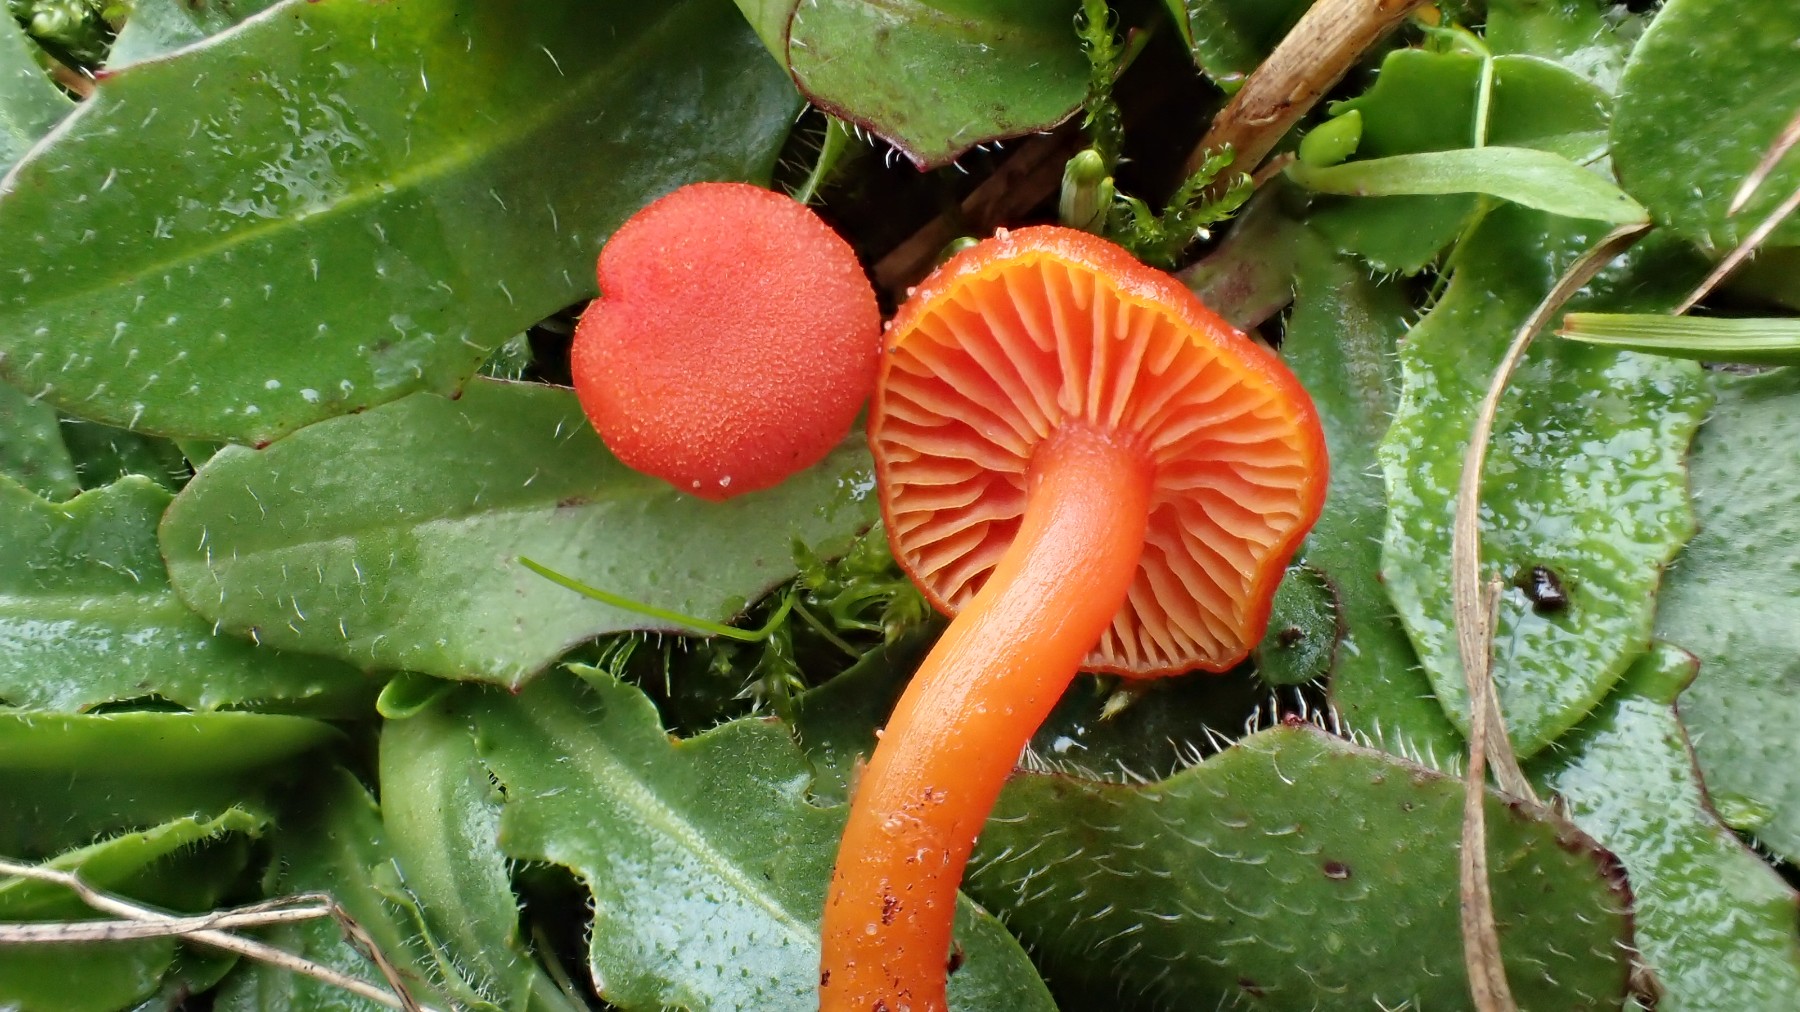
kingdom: Fungi
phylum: Basidiomycota
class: Agaricomycetes
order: Agaricales
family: Hygrophoraceae
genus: Hygrocybe
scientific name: Hygrocybe miniata
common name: mønje-vokshat
